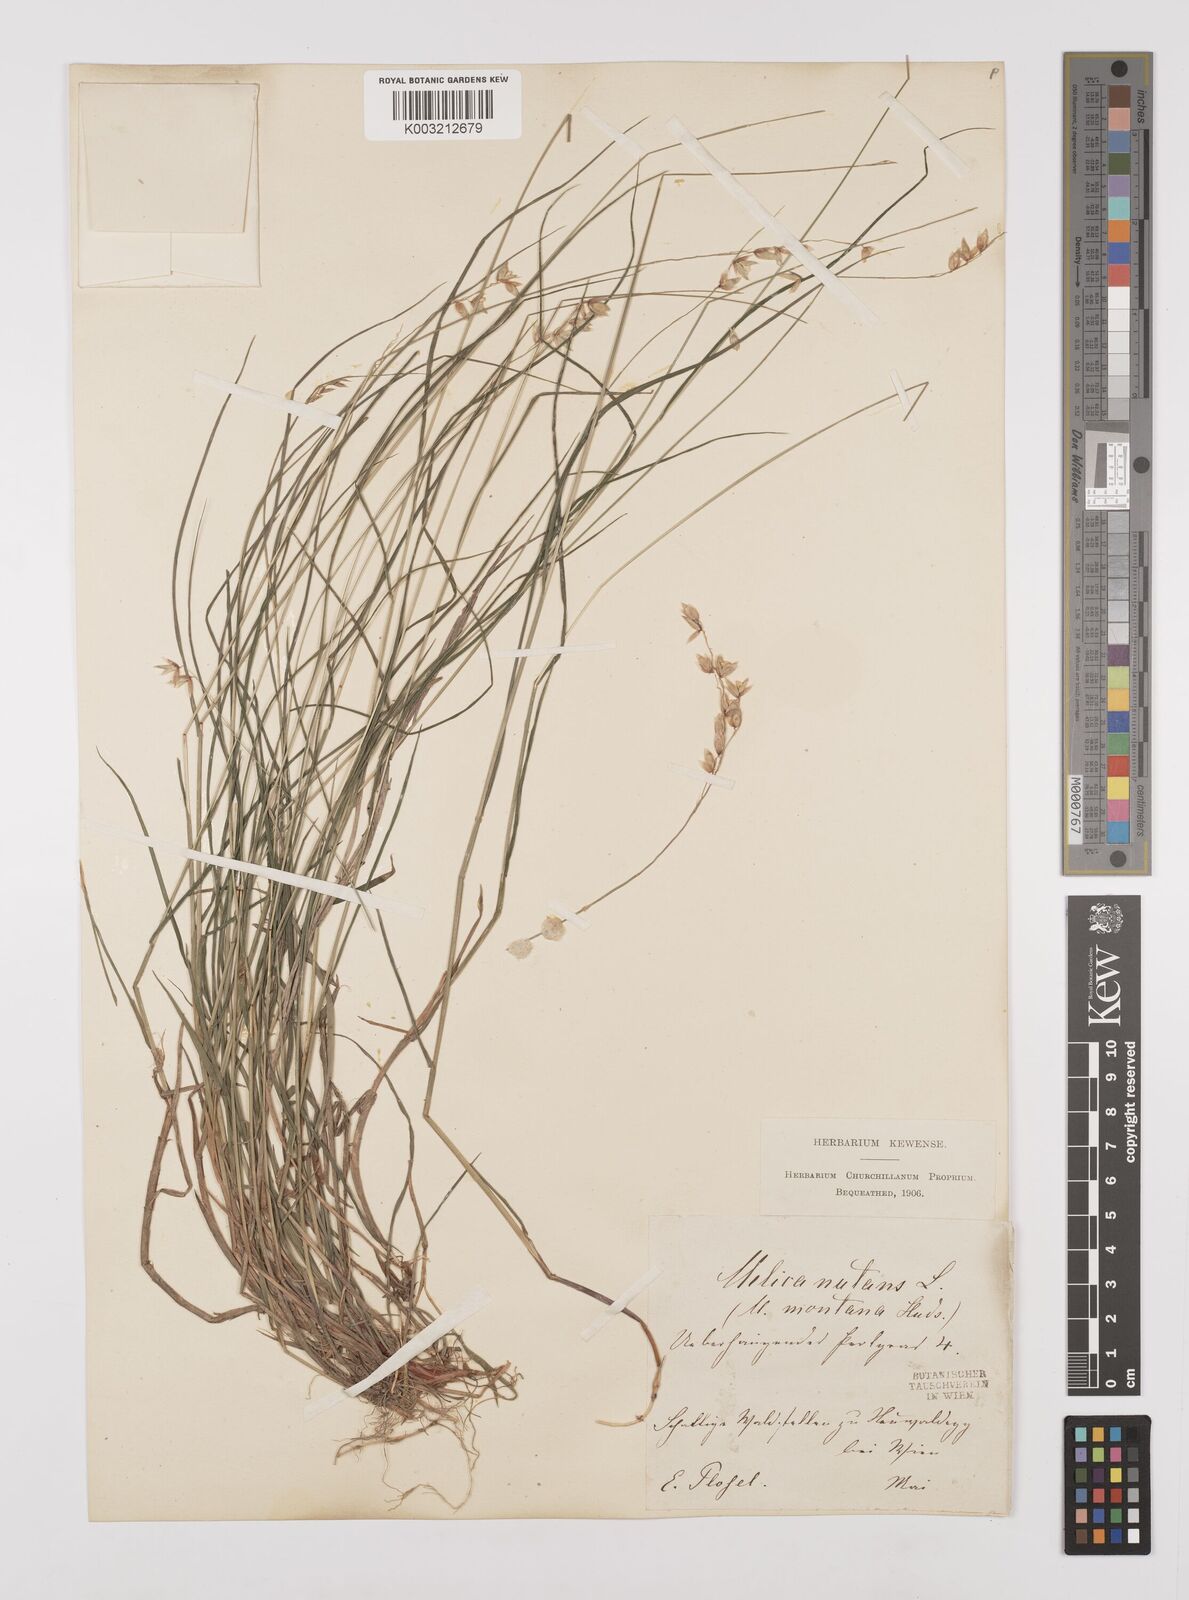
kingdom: Plantae
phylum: Tracheophyta
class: Liliopsida
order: Poales
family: Poaceae
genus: Melica
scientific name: Melica nutans
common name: Mountain melick
